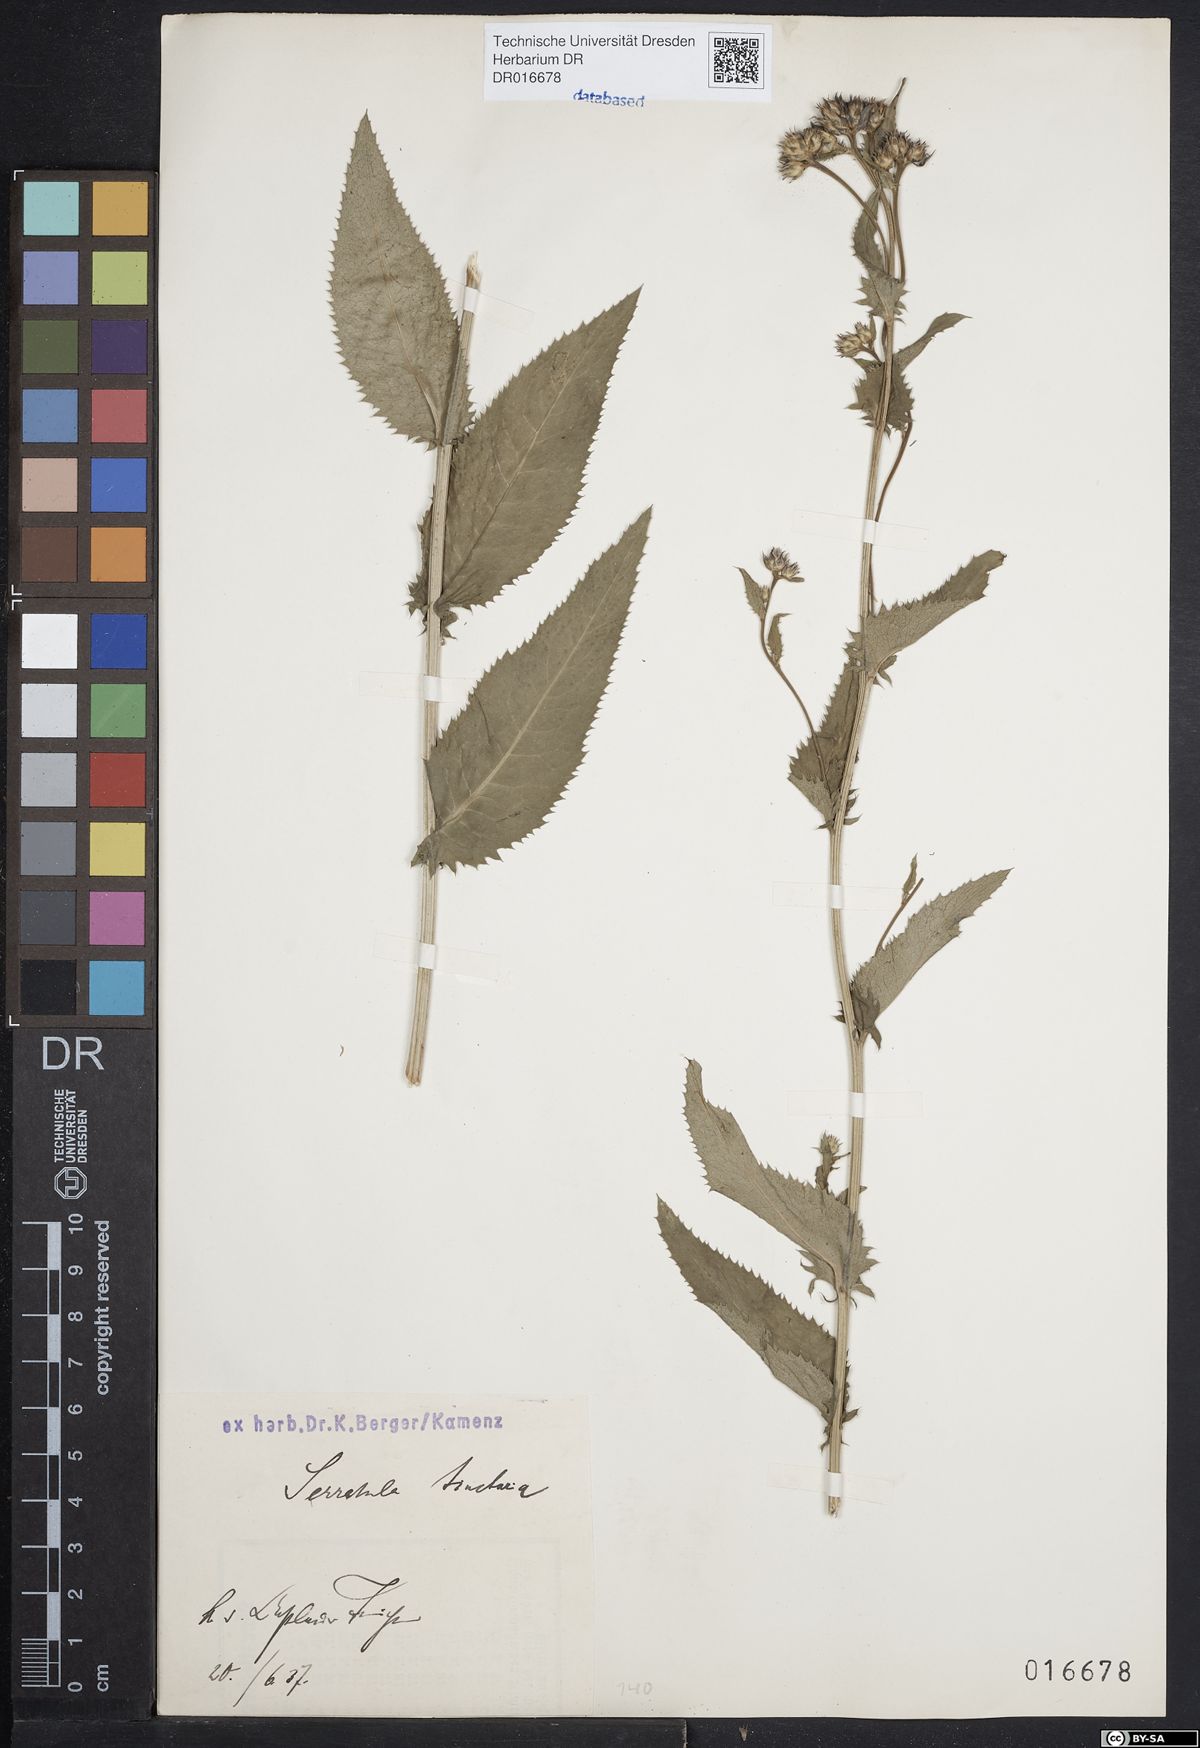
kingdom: Plantae
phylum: Tracheophyta
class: Magnoliopsida
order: Asterales
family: Asteraceae
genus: Serratula
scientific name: Serratula tinctoria
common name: Saw-wort
